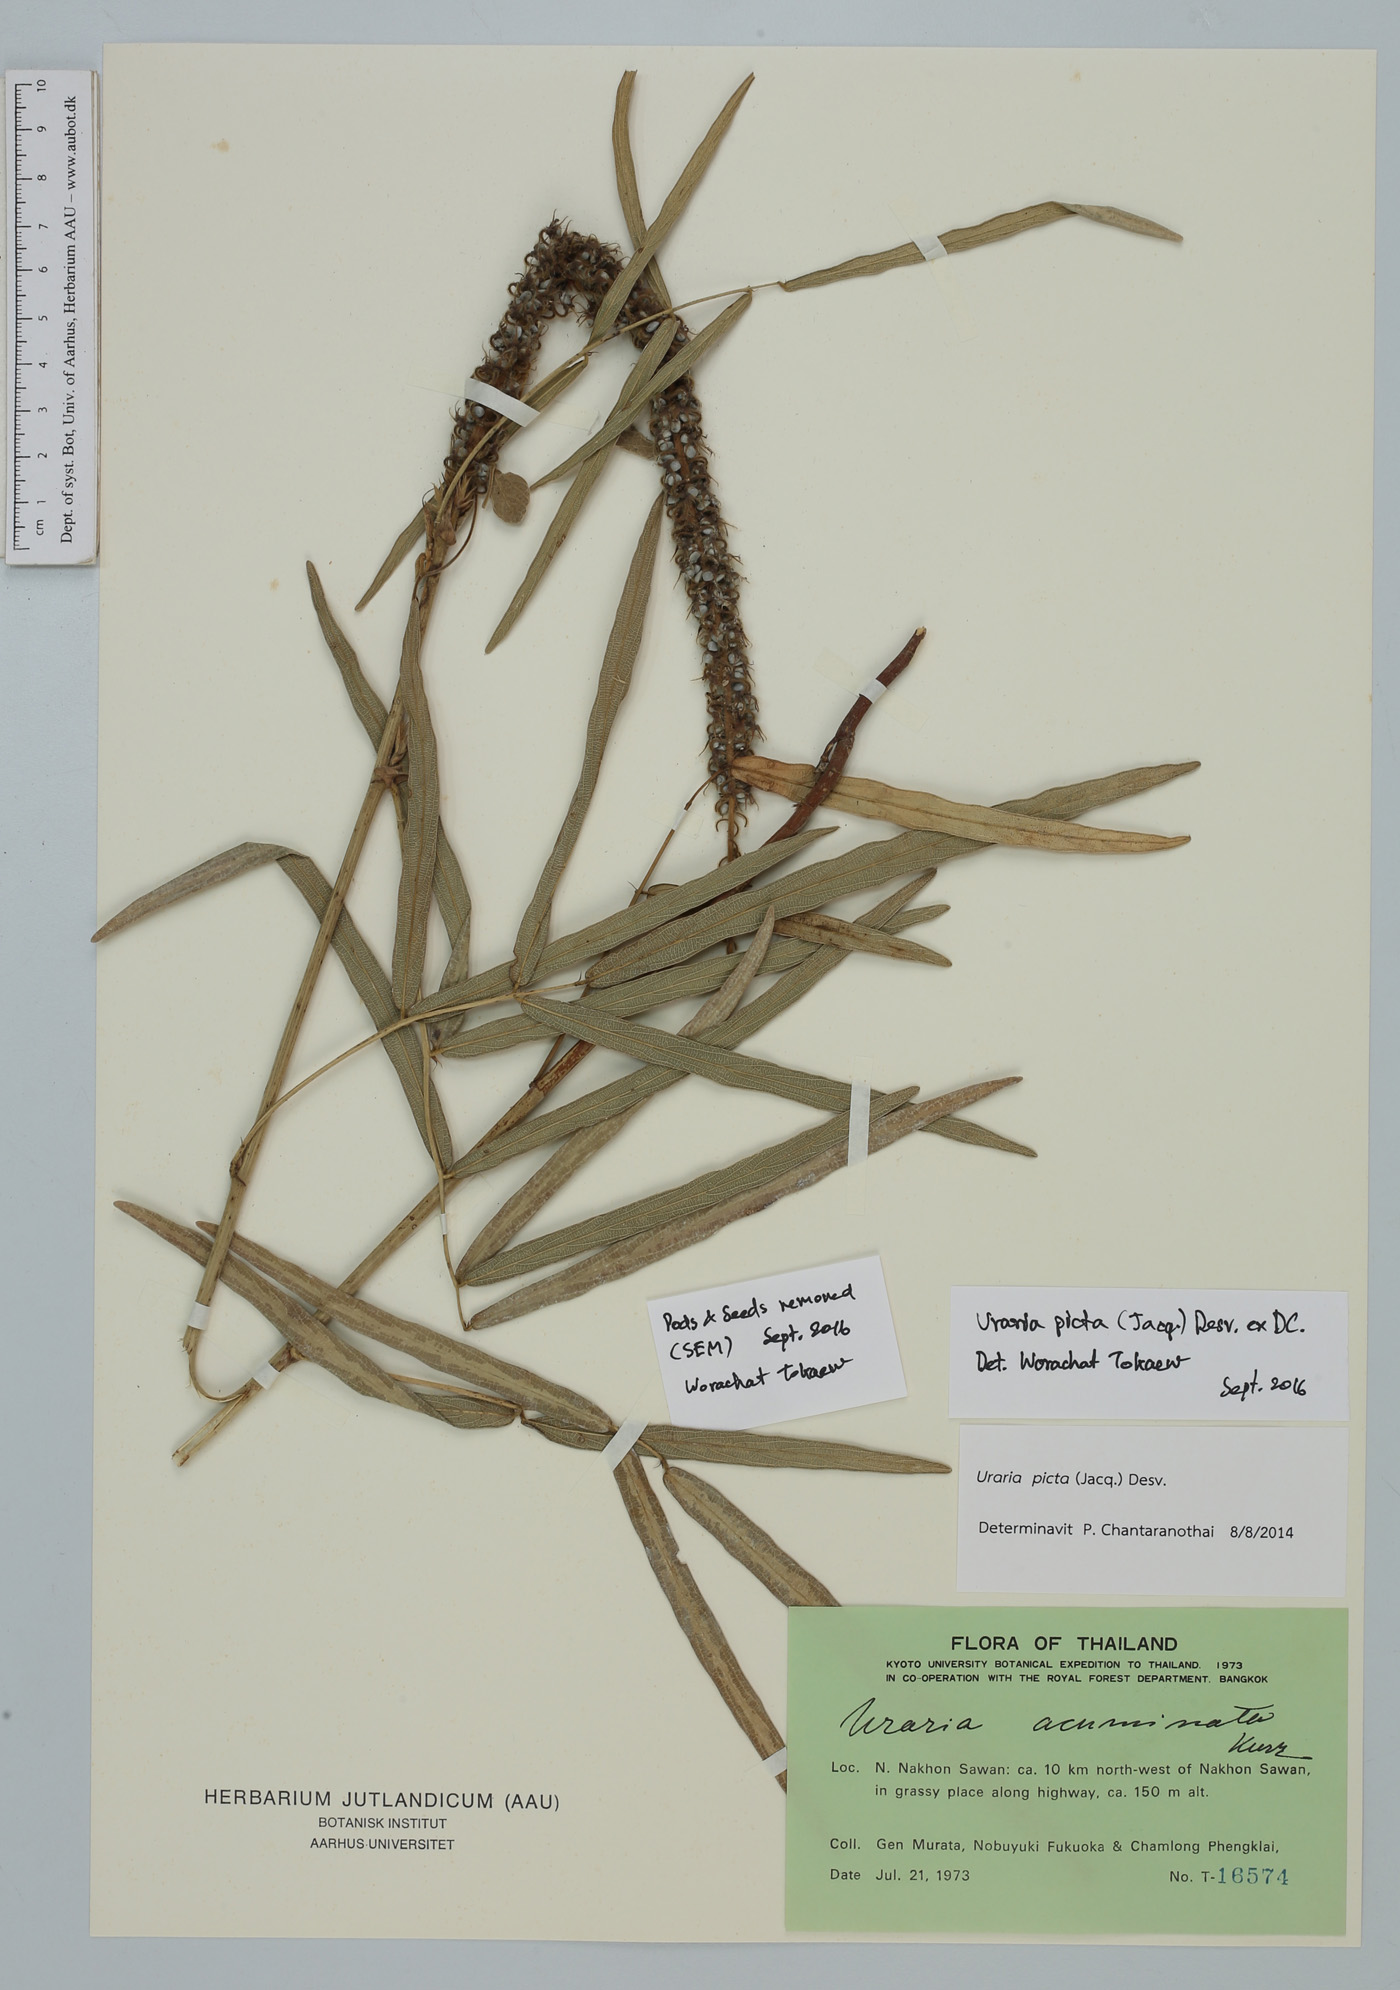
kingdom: Plantae
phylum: Tracheophyta
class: Magnoliopsida
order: Fabales
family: Fabaceae
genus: Uraria
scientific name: Uraria picta
